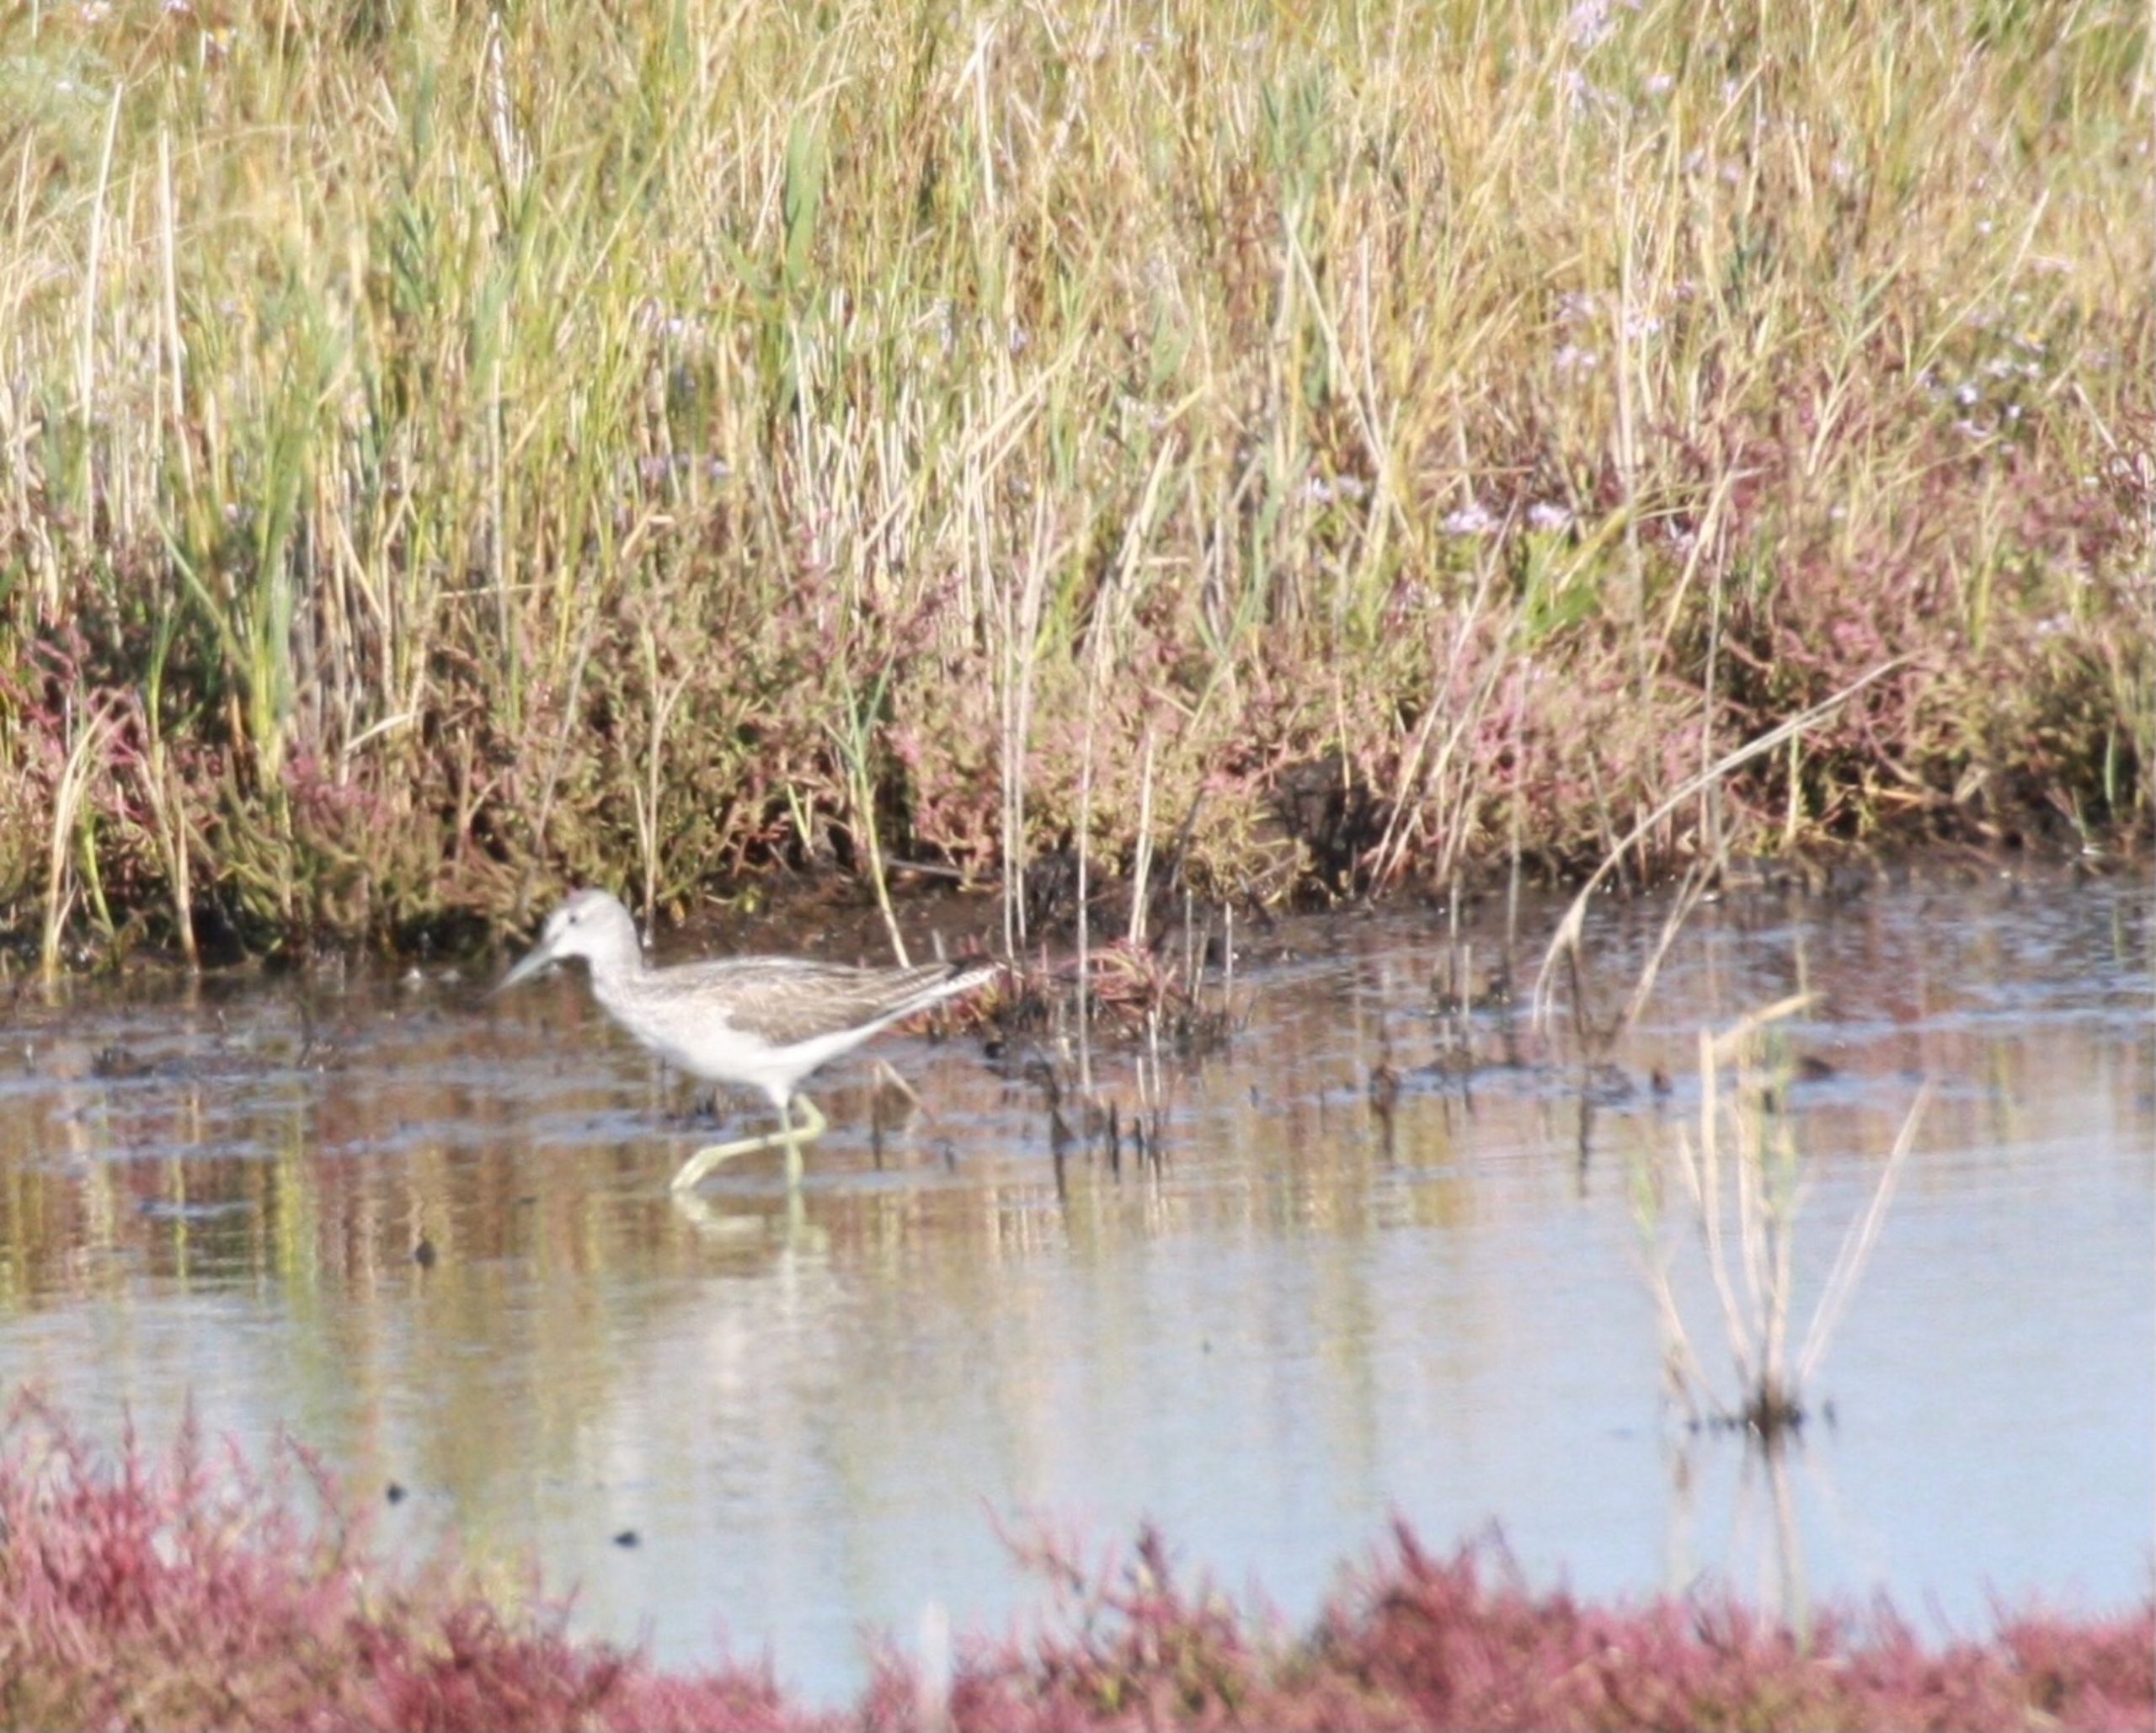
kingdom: Animalia
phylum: Chordata
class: Aves
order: Charadriiformes
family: Scolopacidae
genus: Tringa
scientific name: Tringa nebularia
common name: Hvidklire
